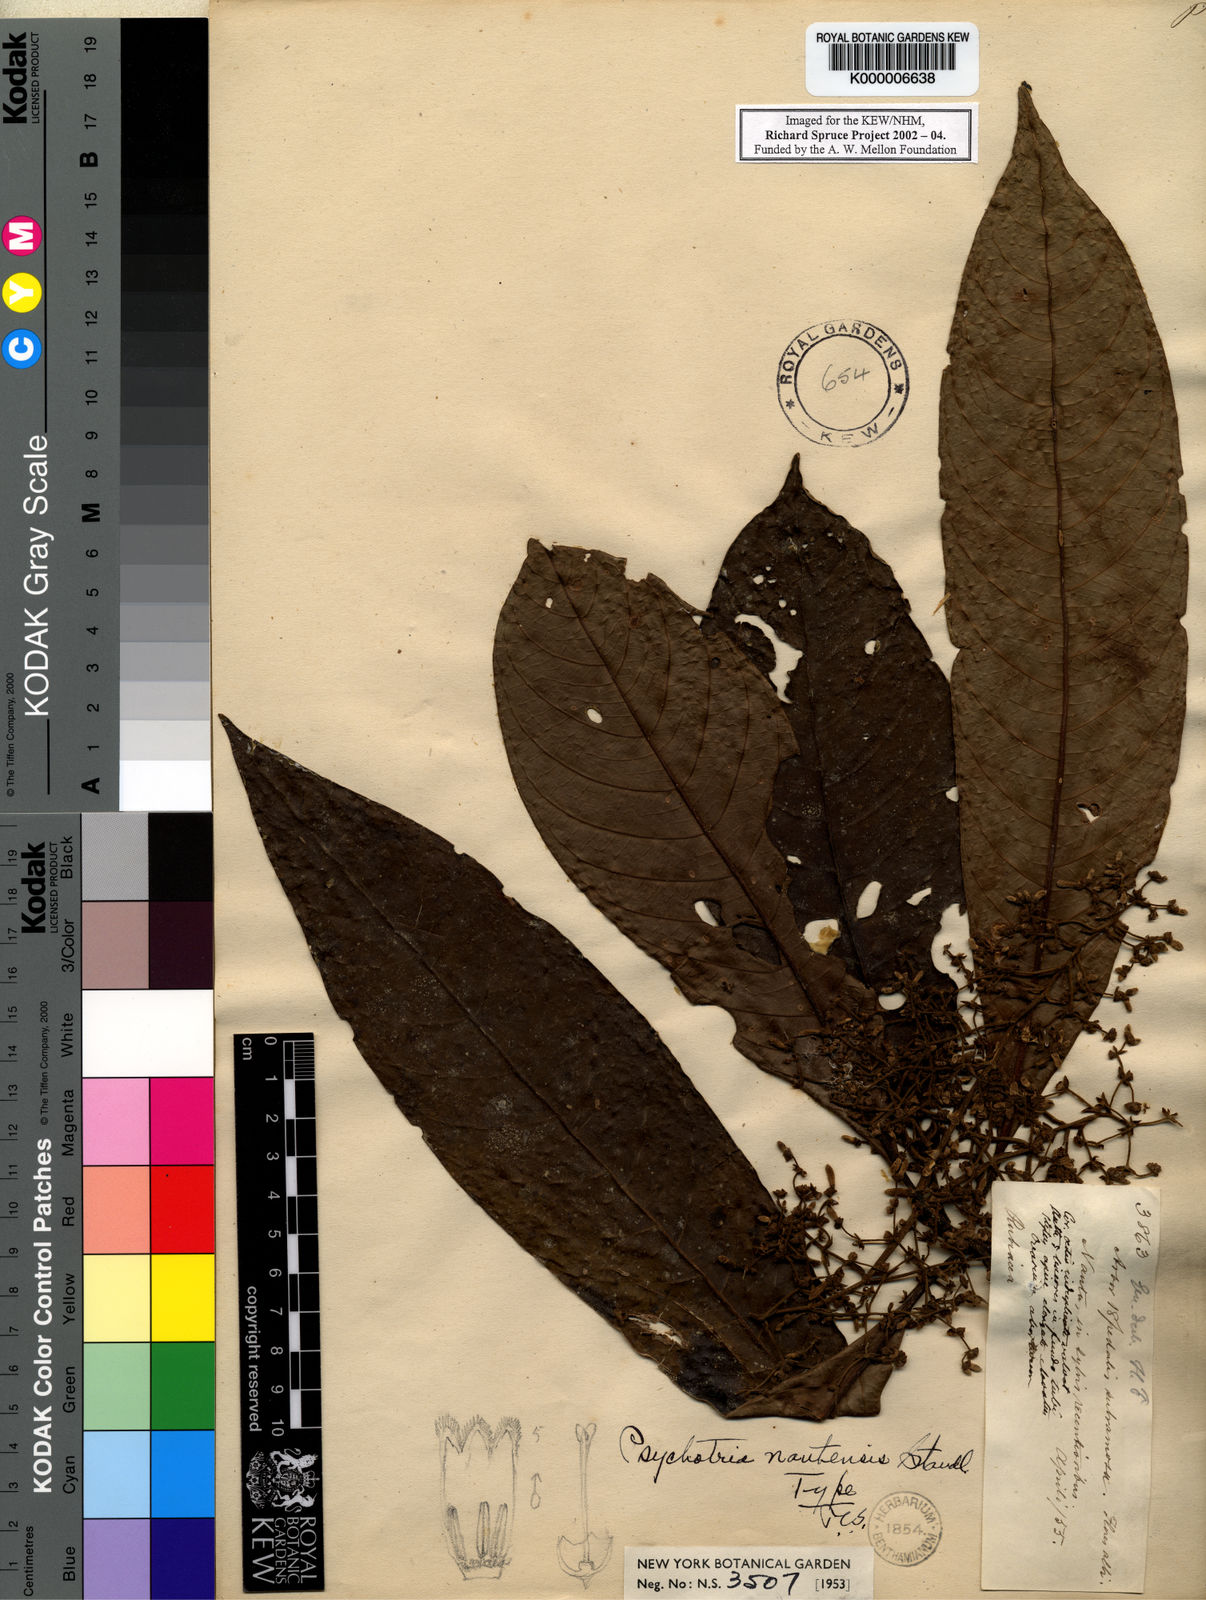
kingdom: Plantae
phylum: Tracheophyta
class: Magnoliopsida
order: Gentianales
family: Rubiaceae
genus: Palicourea
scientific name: Palicourea nautensis
